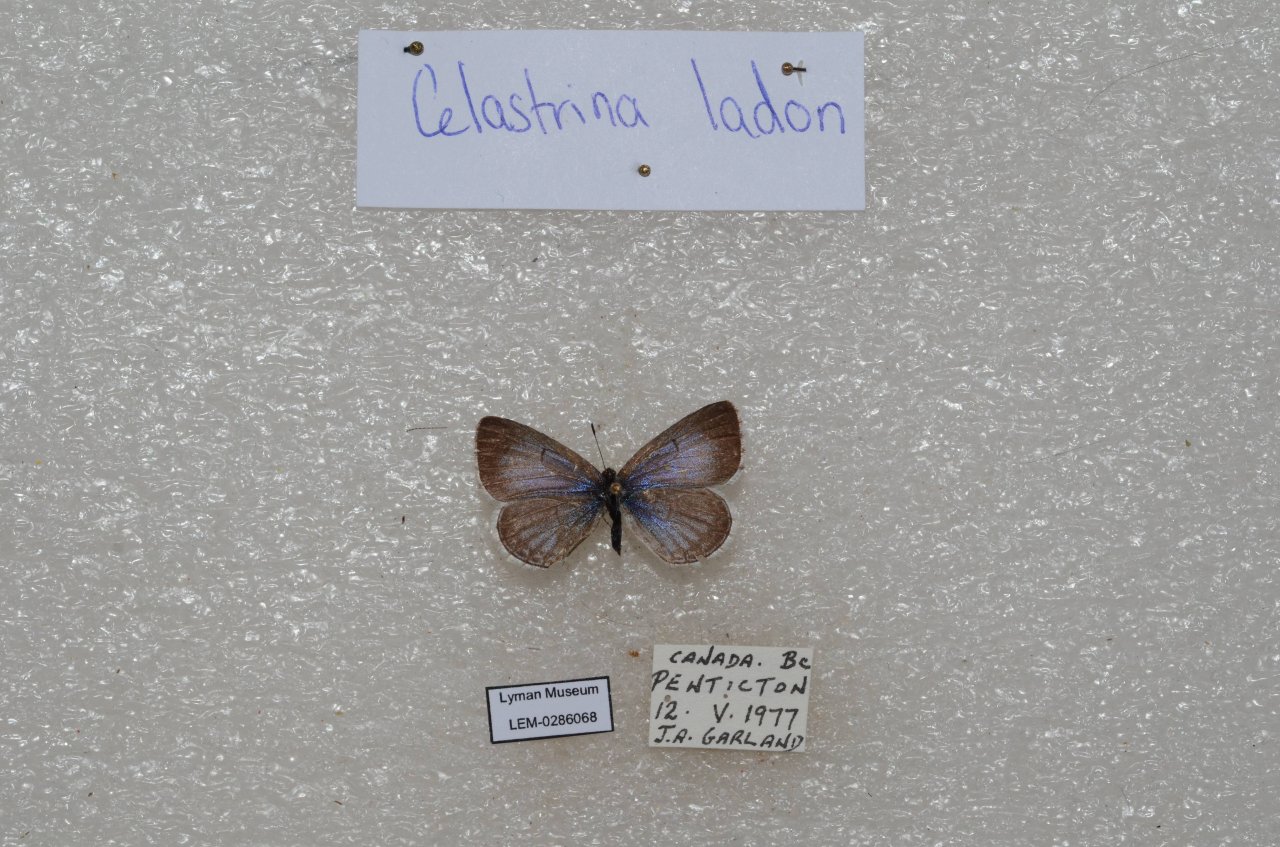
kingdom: Animalia
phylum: Arthropoda
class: Insecta
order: Lepidoptera
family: Lycaenidae
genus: Celastrina
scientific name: Celastrina
